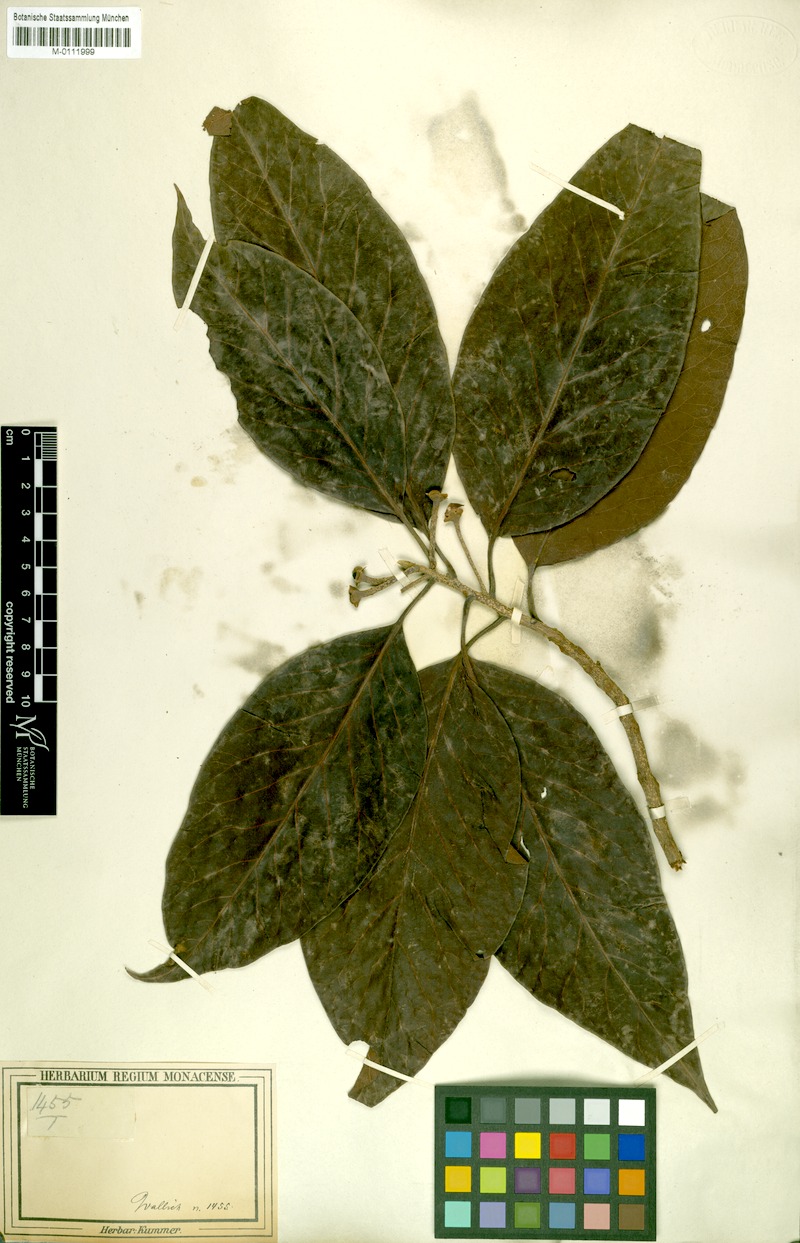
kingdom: Plantae
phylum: Tracheophyta
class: Magnoliopsida
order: Ericales
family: Theaceae
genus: Schima
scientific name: Schima wallichii
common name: Schima
